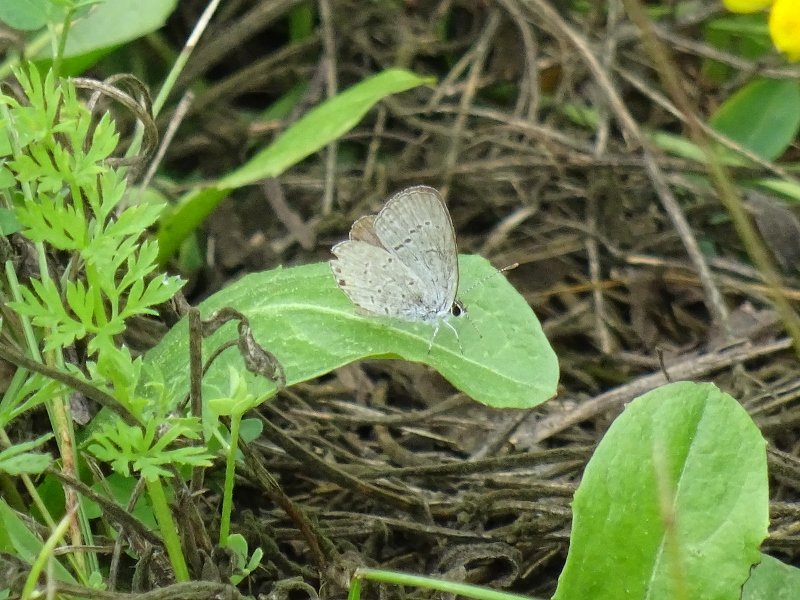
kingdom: Animalia
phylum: Arthropoda
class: Insecta
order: Lepidoptera
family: Lycaenidae
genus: Elkalyce
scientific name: Elkalyce comyntas
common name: Eastern Tailed-Blue
